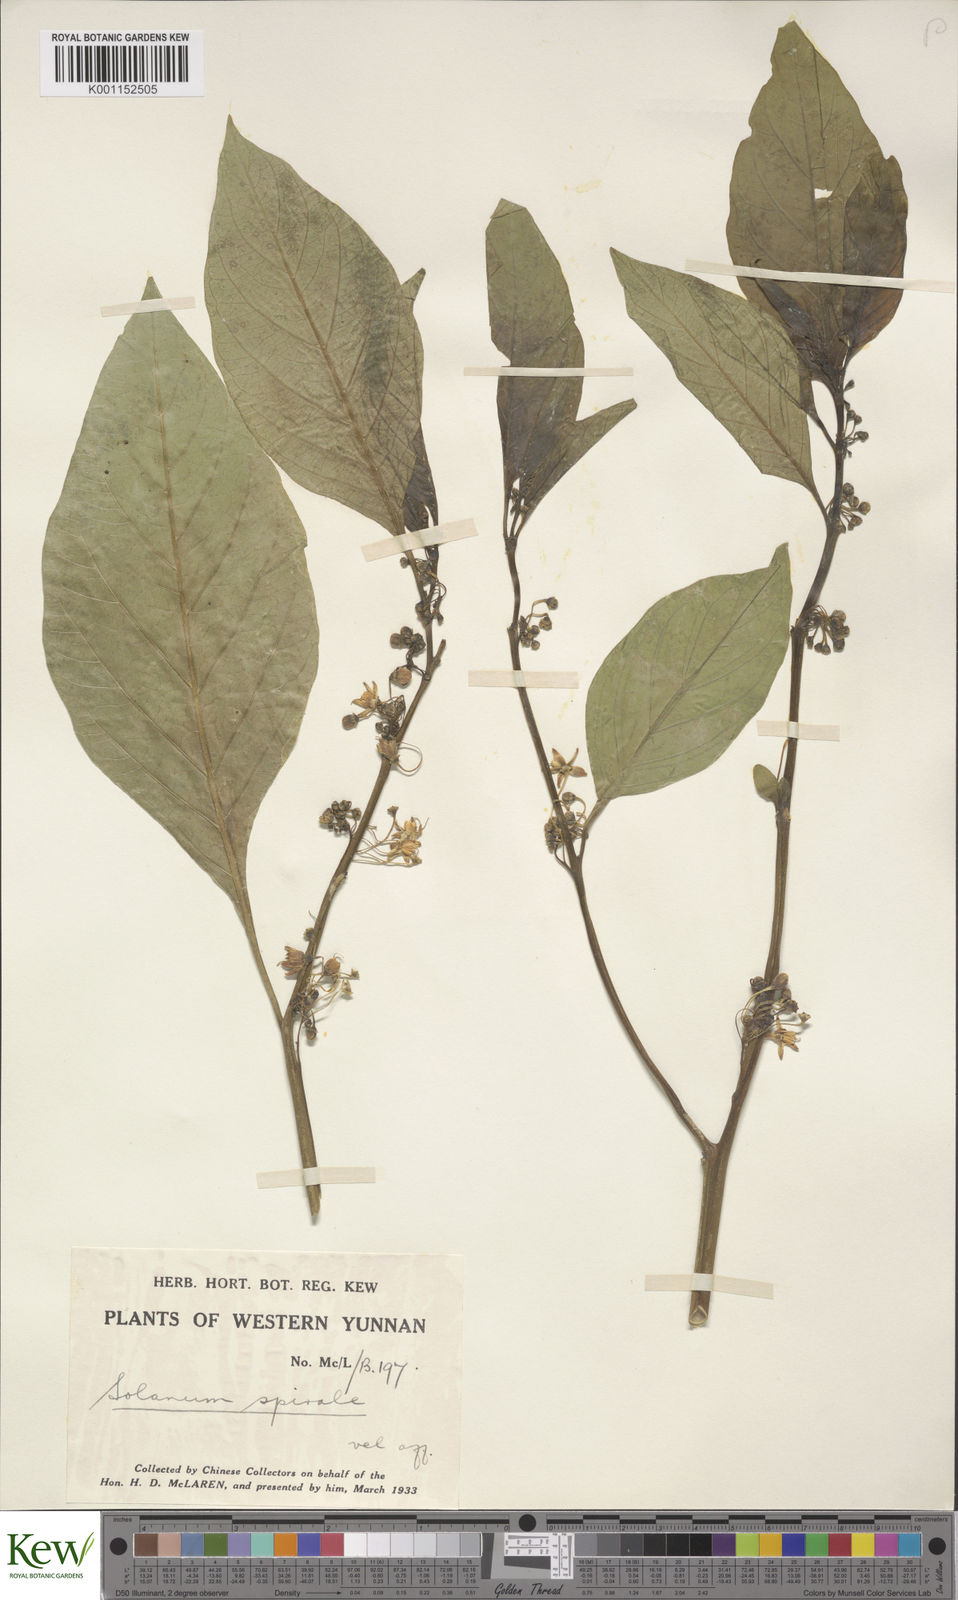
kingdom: Plantae
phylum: Tracheophyta
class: Magnoliopsida
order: Solanales
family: Solanaceae
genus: Solanum
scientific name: Solanum spirale
